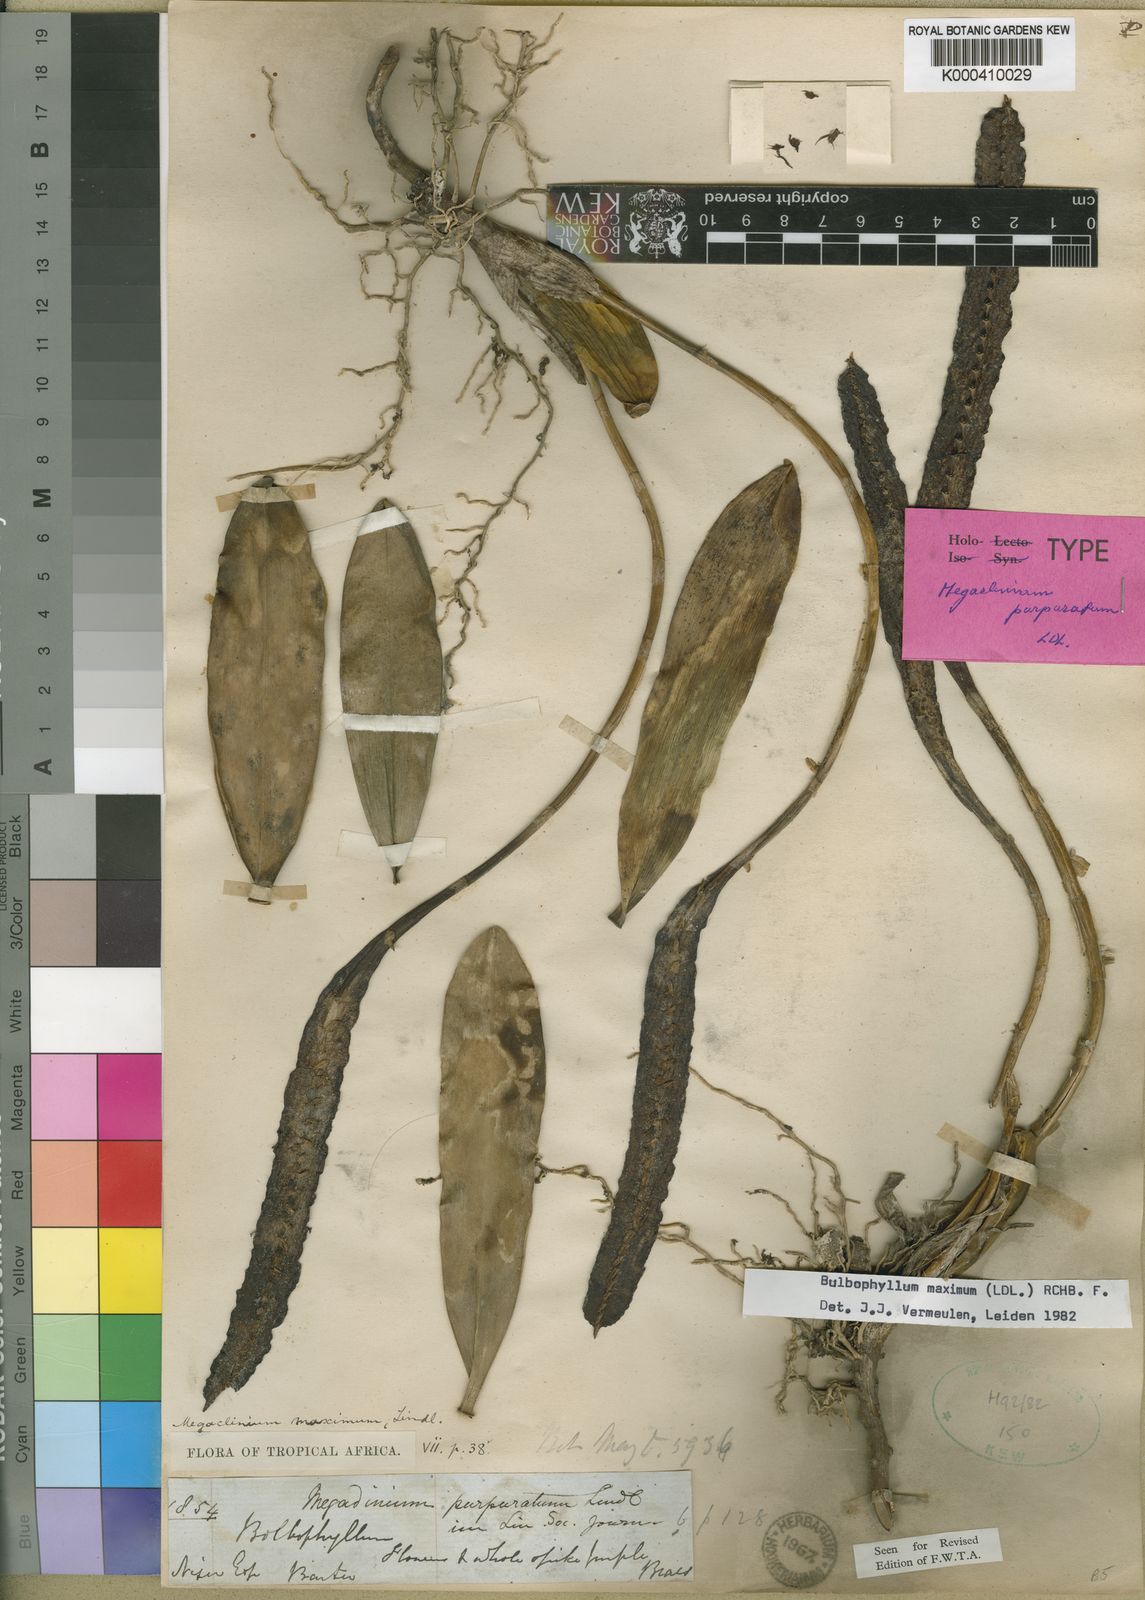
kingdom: Plantae
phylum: Tracheophyta
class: Liliopsida
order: Asparagales
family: Orchidaceae
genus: Bulbophyllum
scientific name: Bulbophyllum maximum
